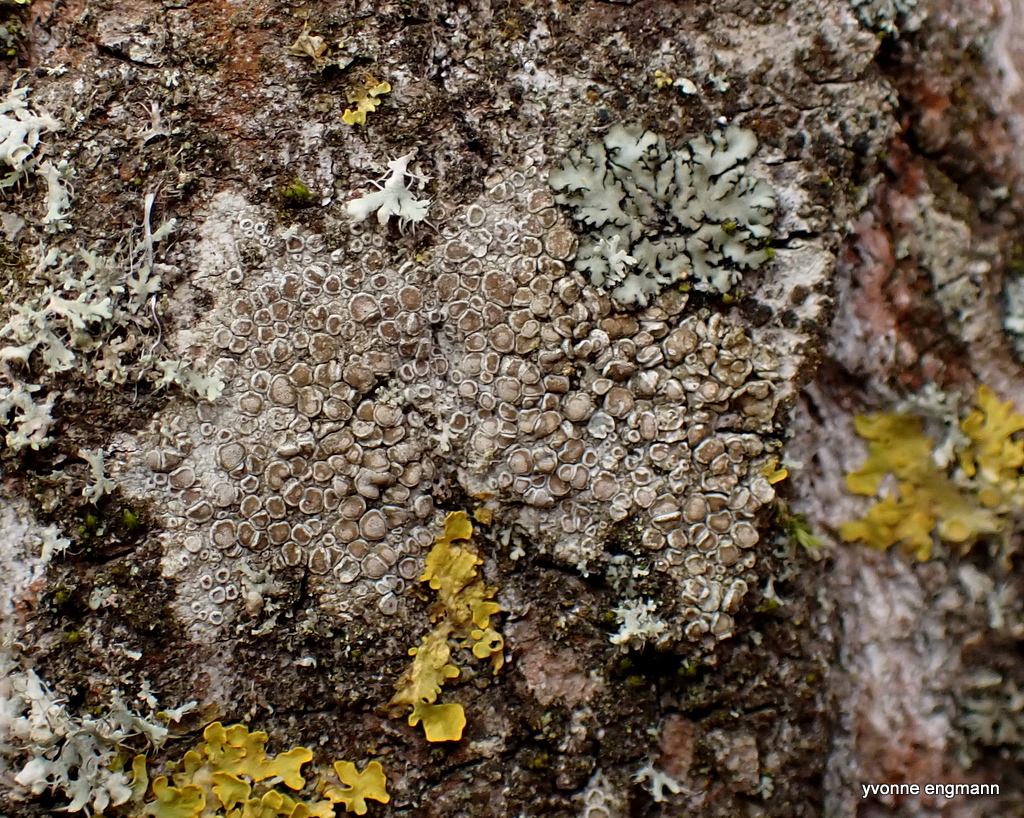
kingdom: Fungi
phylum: Ascomycota
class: Lecanoromycetes
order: Lecanorales
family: Lecanoraceae
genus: Lecanora
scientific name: Lecanora chlarotera
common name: brun kantskivelav
